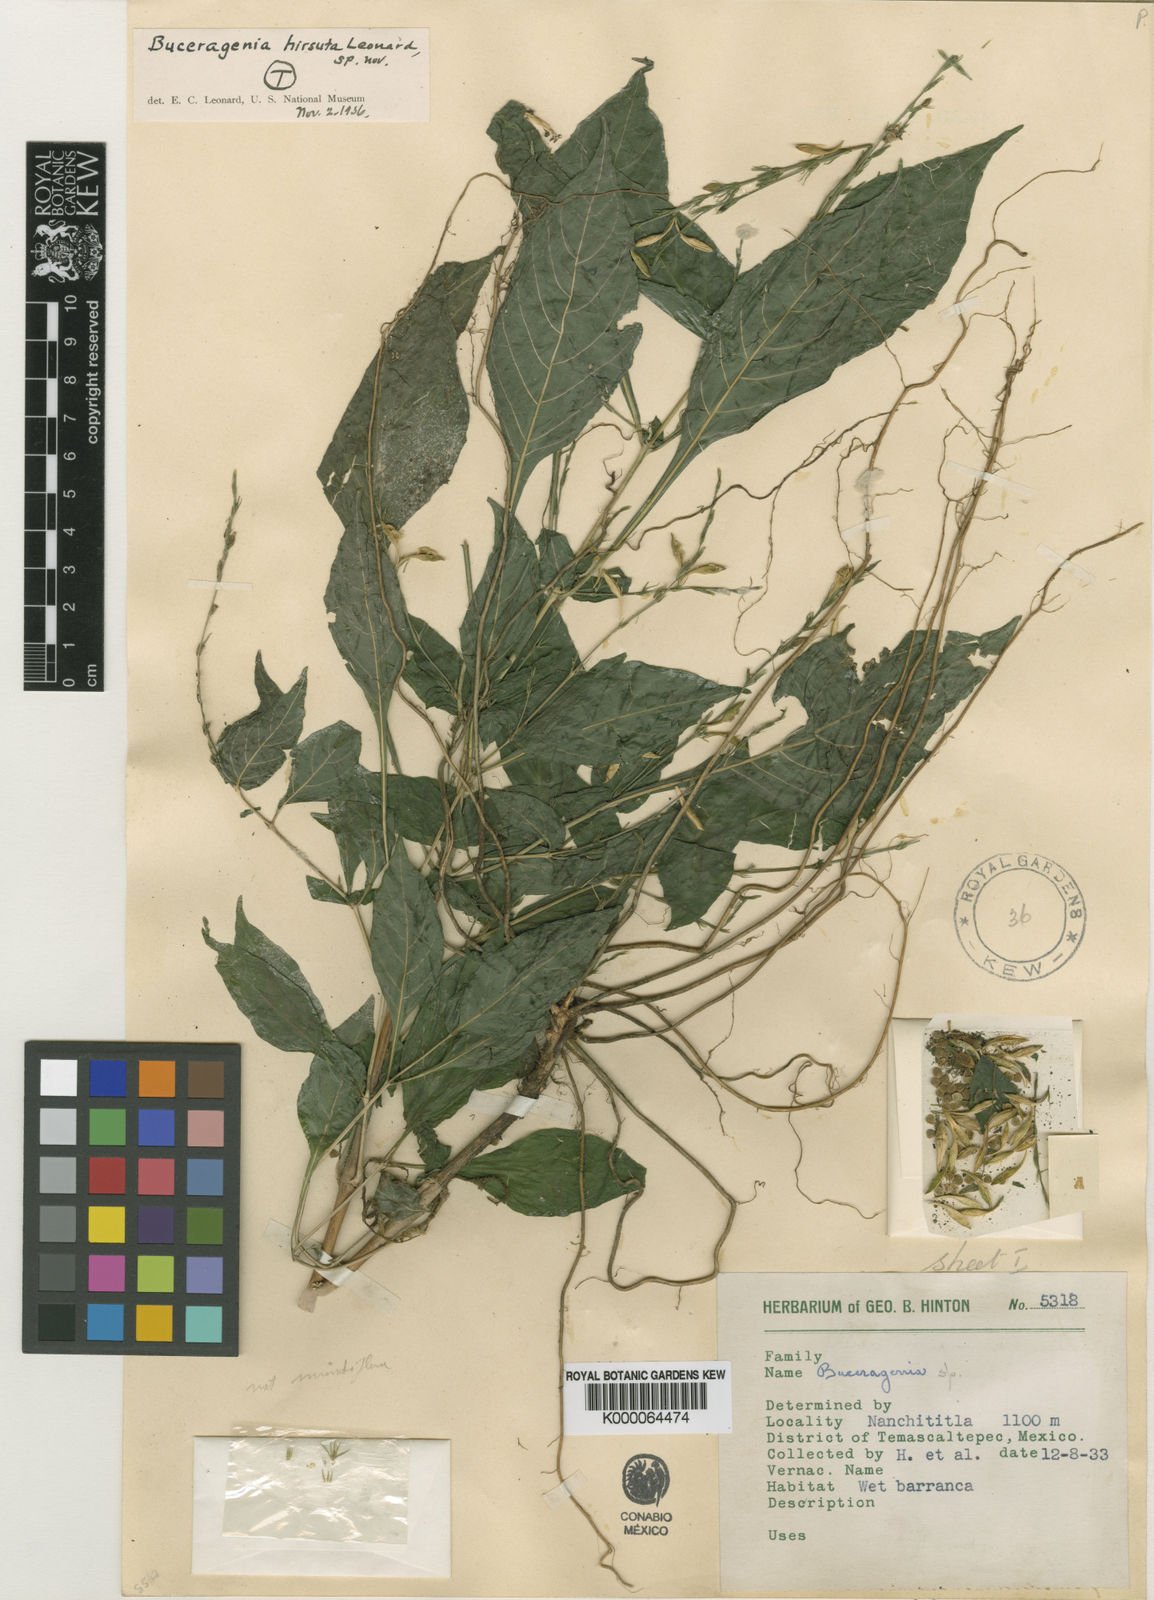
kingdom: Plantae
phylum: Tracheophyta
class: Magnoliopsida
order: Lamiales
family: Acanthaceae
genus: Pseuderanthemum
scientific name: Pseuderanthemum
